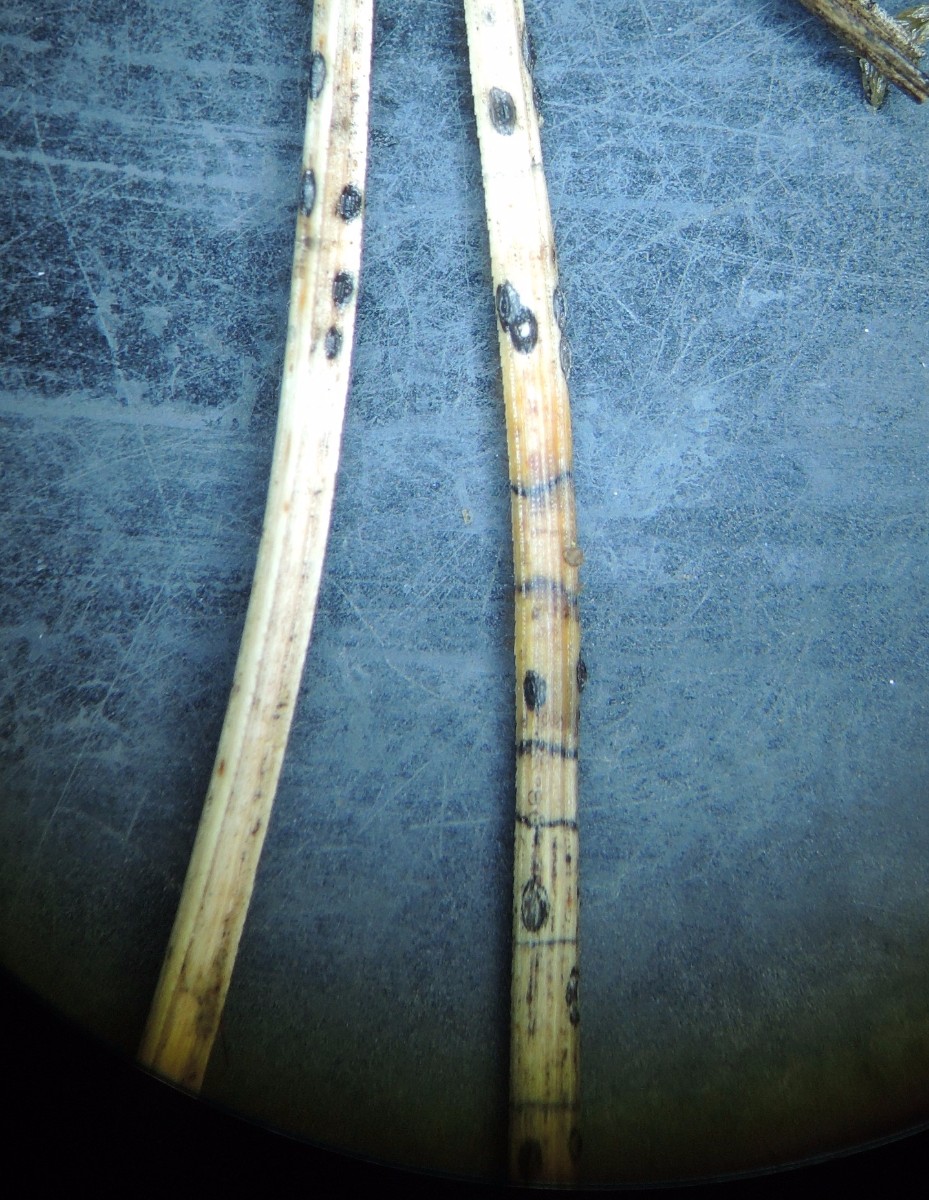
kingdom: Fungi
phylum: Ascomycota
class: Leotiomycetes
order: Rhytismatales
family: Rhytismataceae
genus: Lophodermium
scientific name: Lophodermium pinastri
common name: fyrre-fureplet
